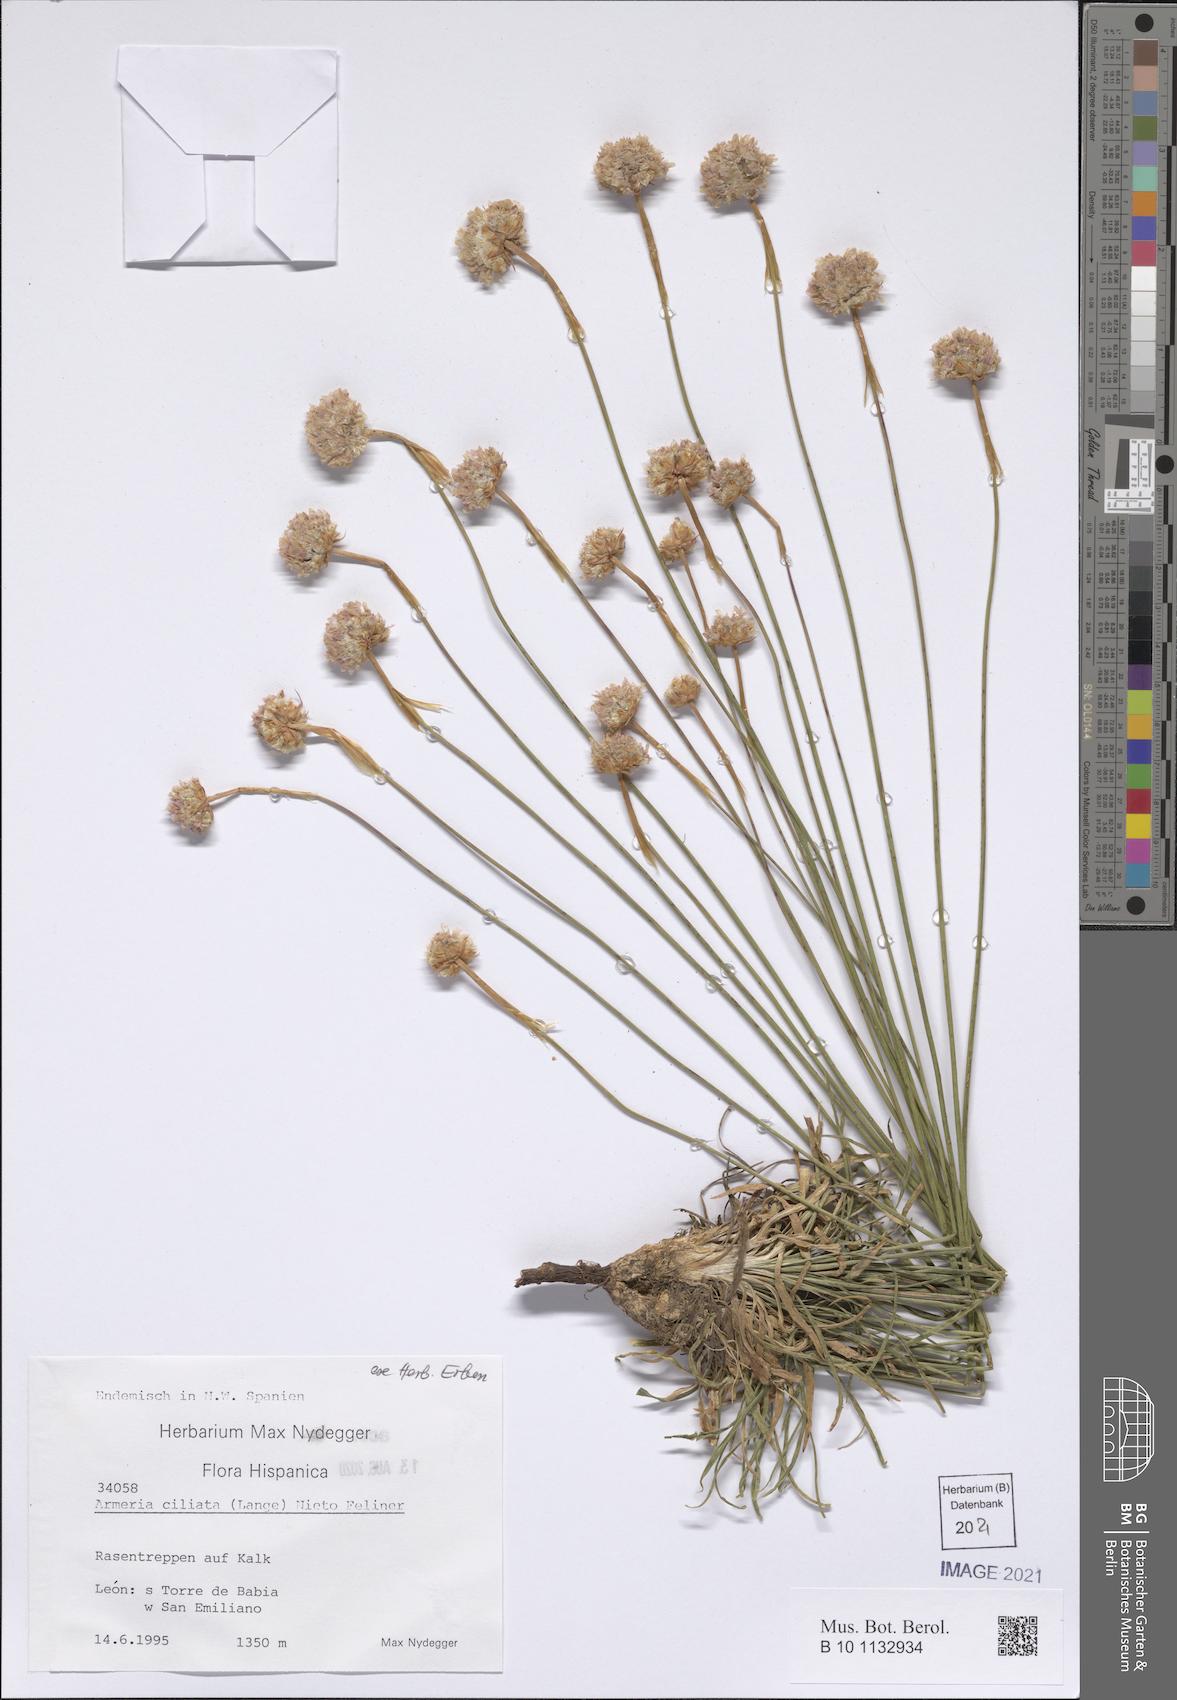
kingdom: Plantae
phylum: Tracheophyta
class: Magnoliopsida
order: Caryophyllales
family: Plumbaginaceae
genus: Armeria
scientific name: Armeria ciliata
